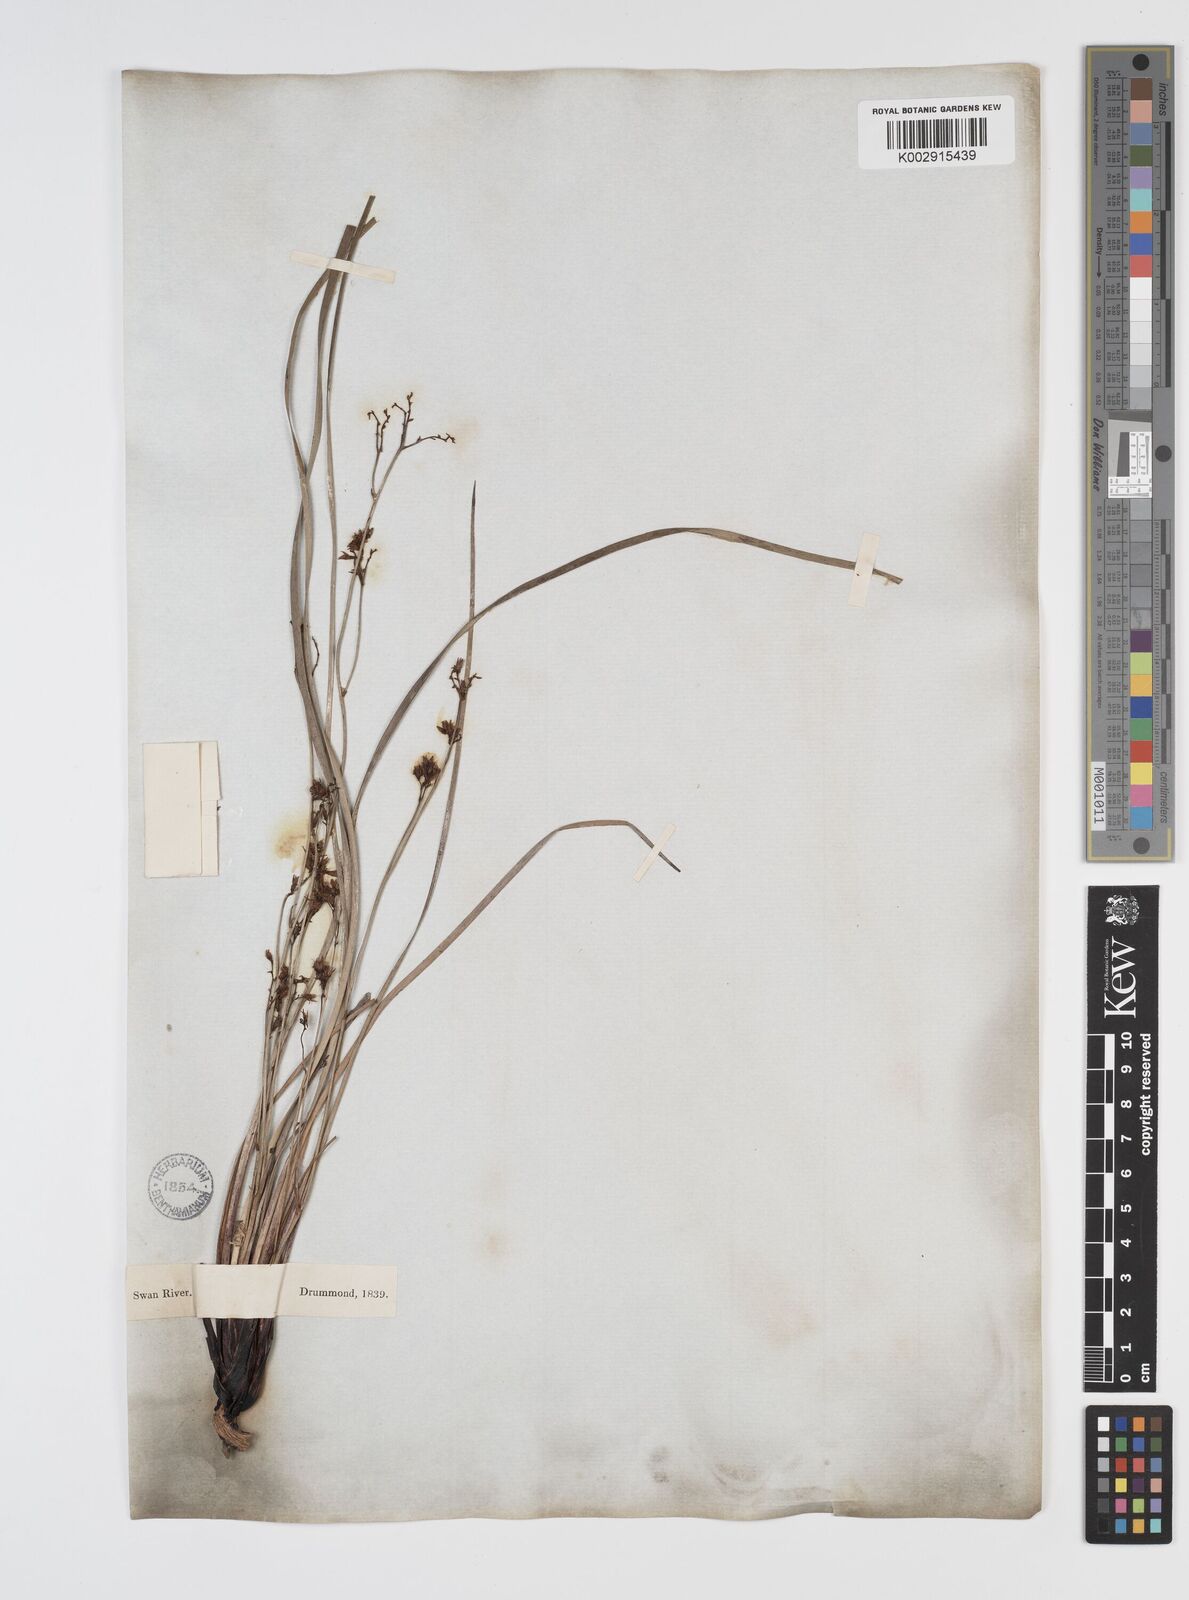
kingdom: Plantae
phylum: Tracheophyta
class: Liliopsida
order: Commelinales
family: Haemodoraceae
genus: Phlebocarya
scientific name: Phlebocarya ciliata
